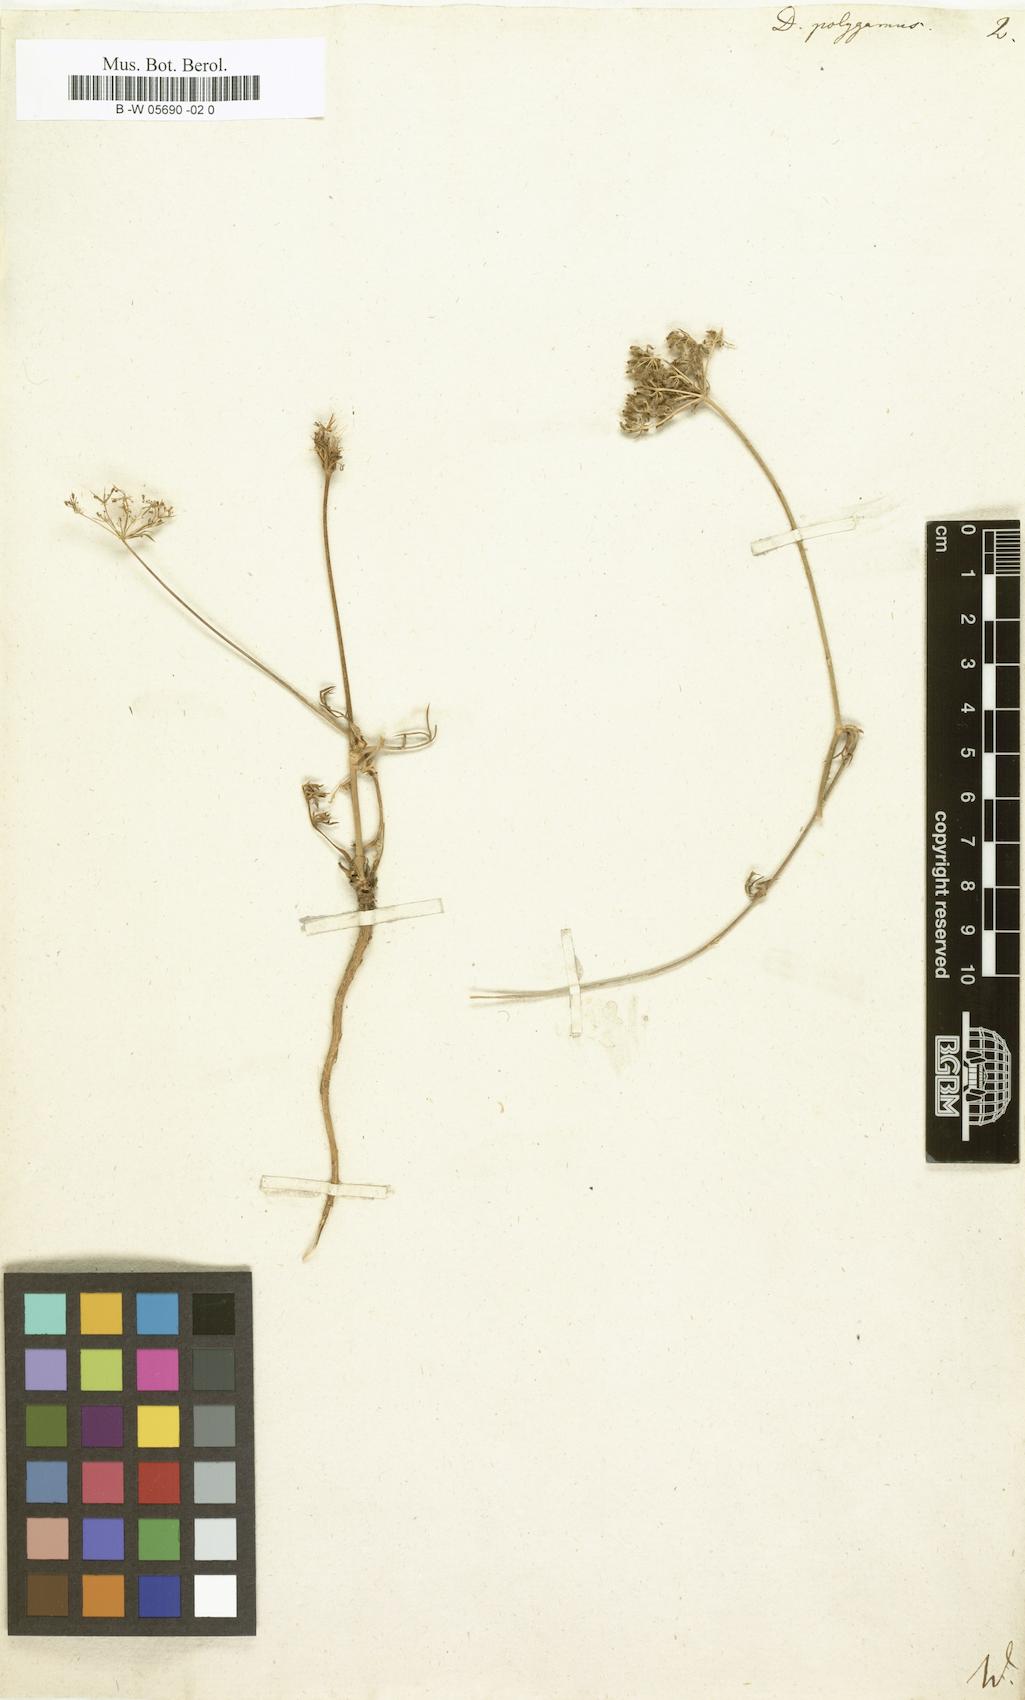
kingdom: Plantae
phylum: Tracheophyta
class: Magnoliopsida
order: Apiales
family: Apiaceae
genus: Daucus
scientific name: Daucus carota
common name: Wild carrot
